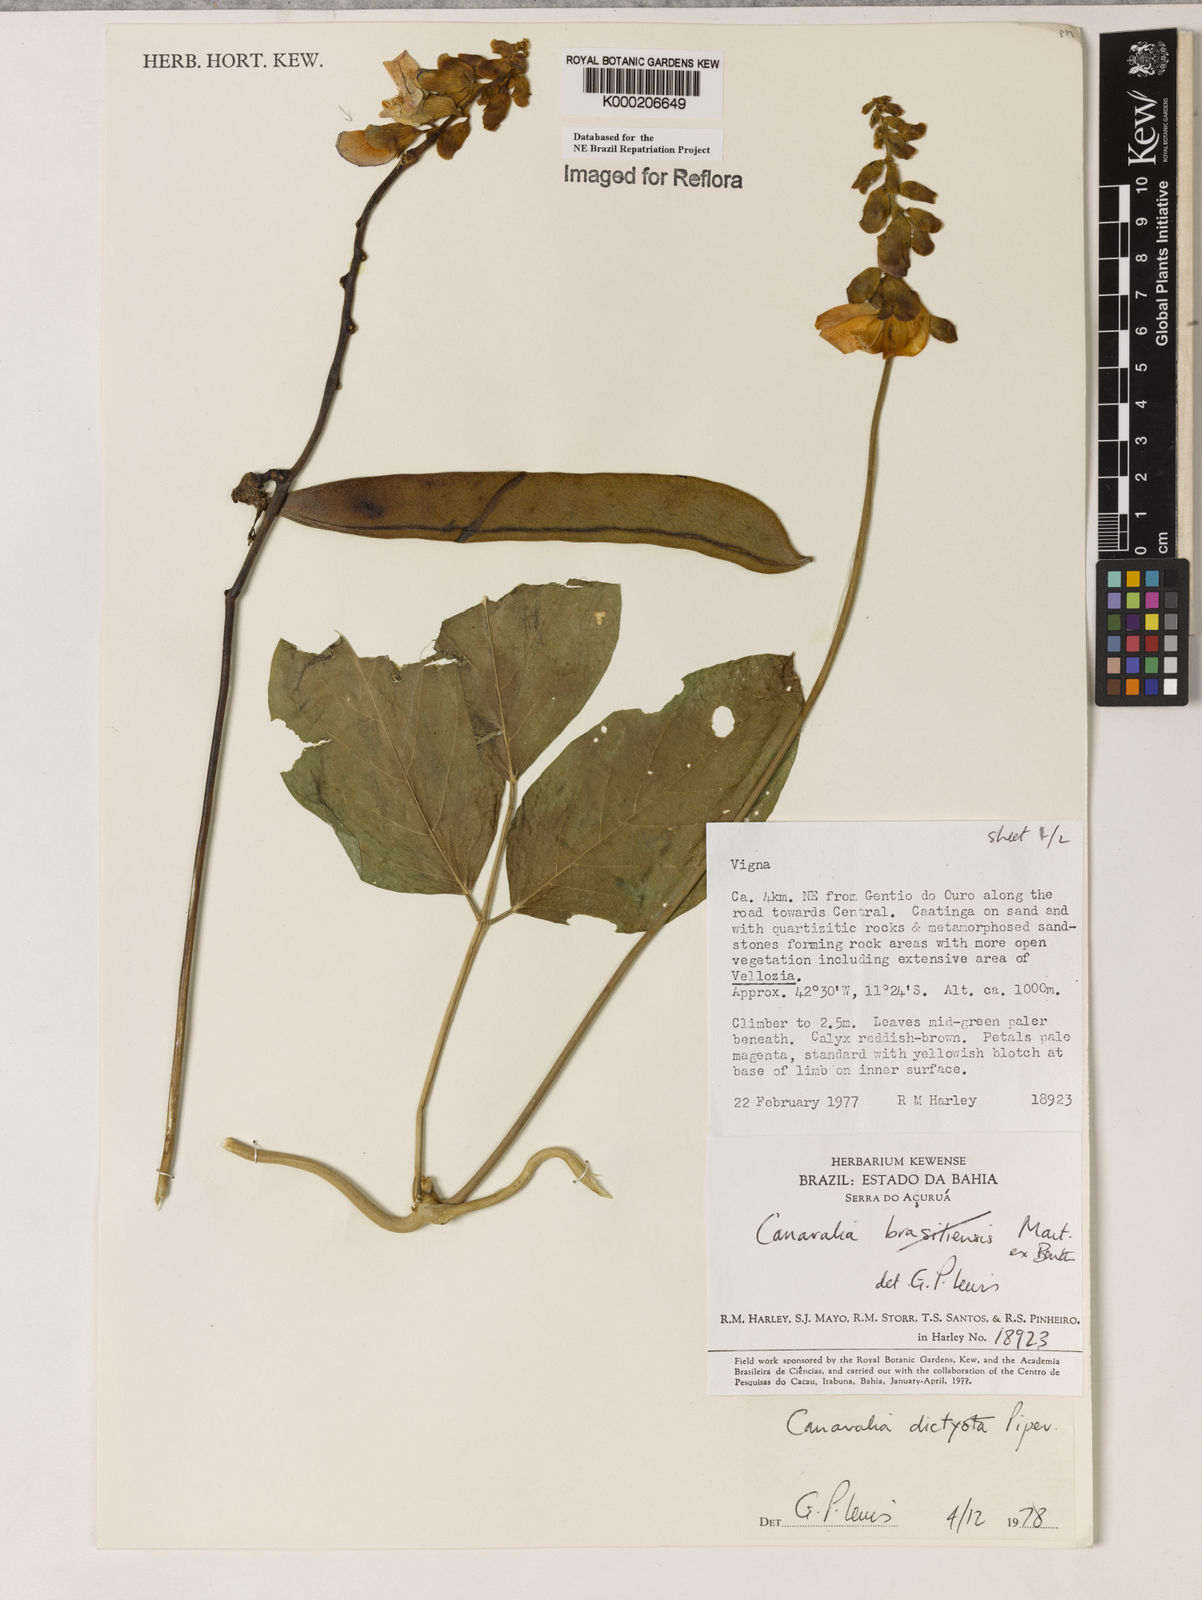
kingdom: Plantae
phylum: Tracheophyta
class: Magnoliopsida
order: Fabales
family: Fabaceae
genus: Canavalia
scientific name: Canavalia brasiliensis
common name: Barbicou-bean
